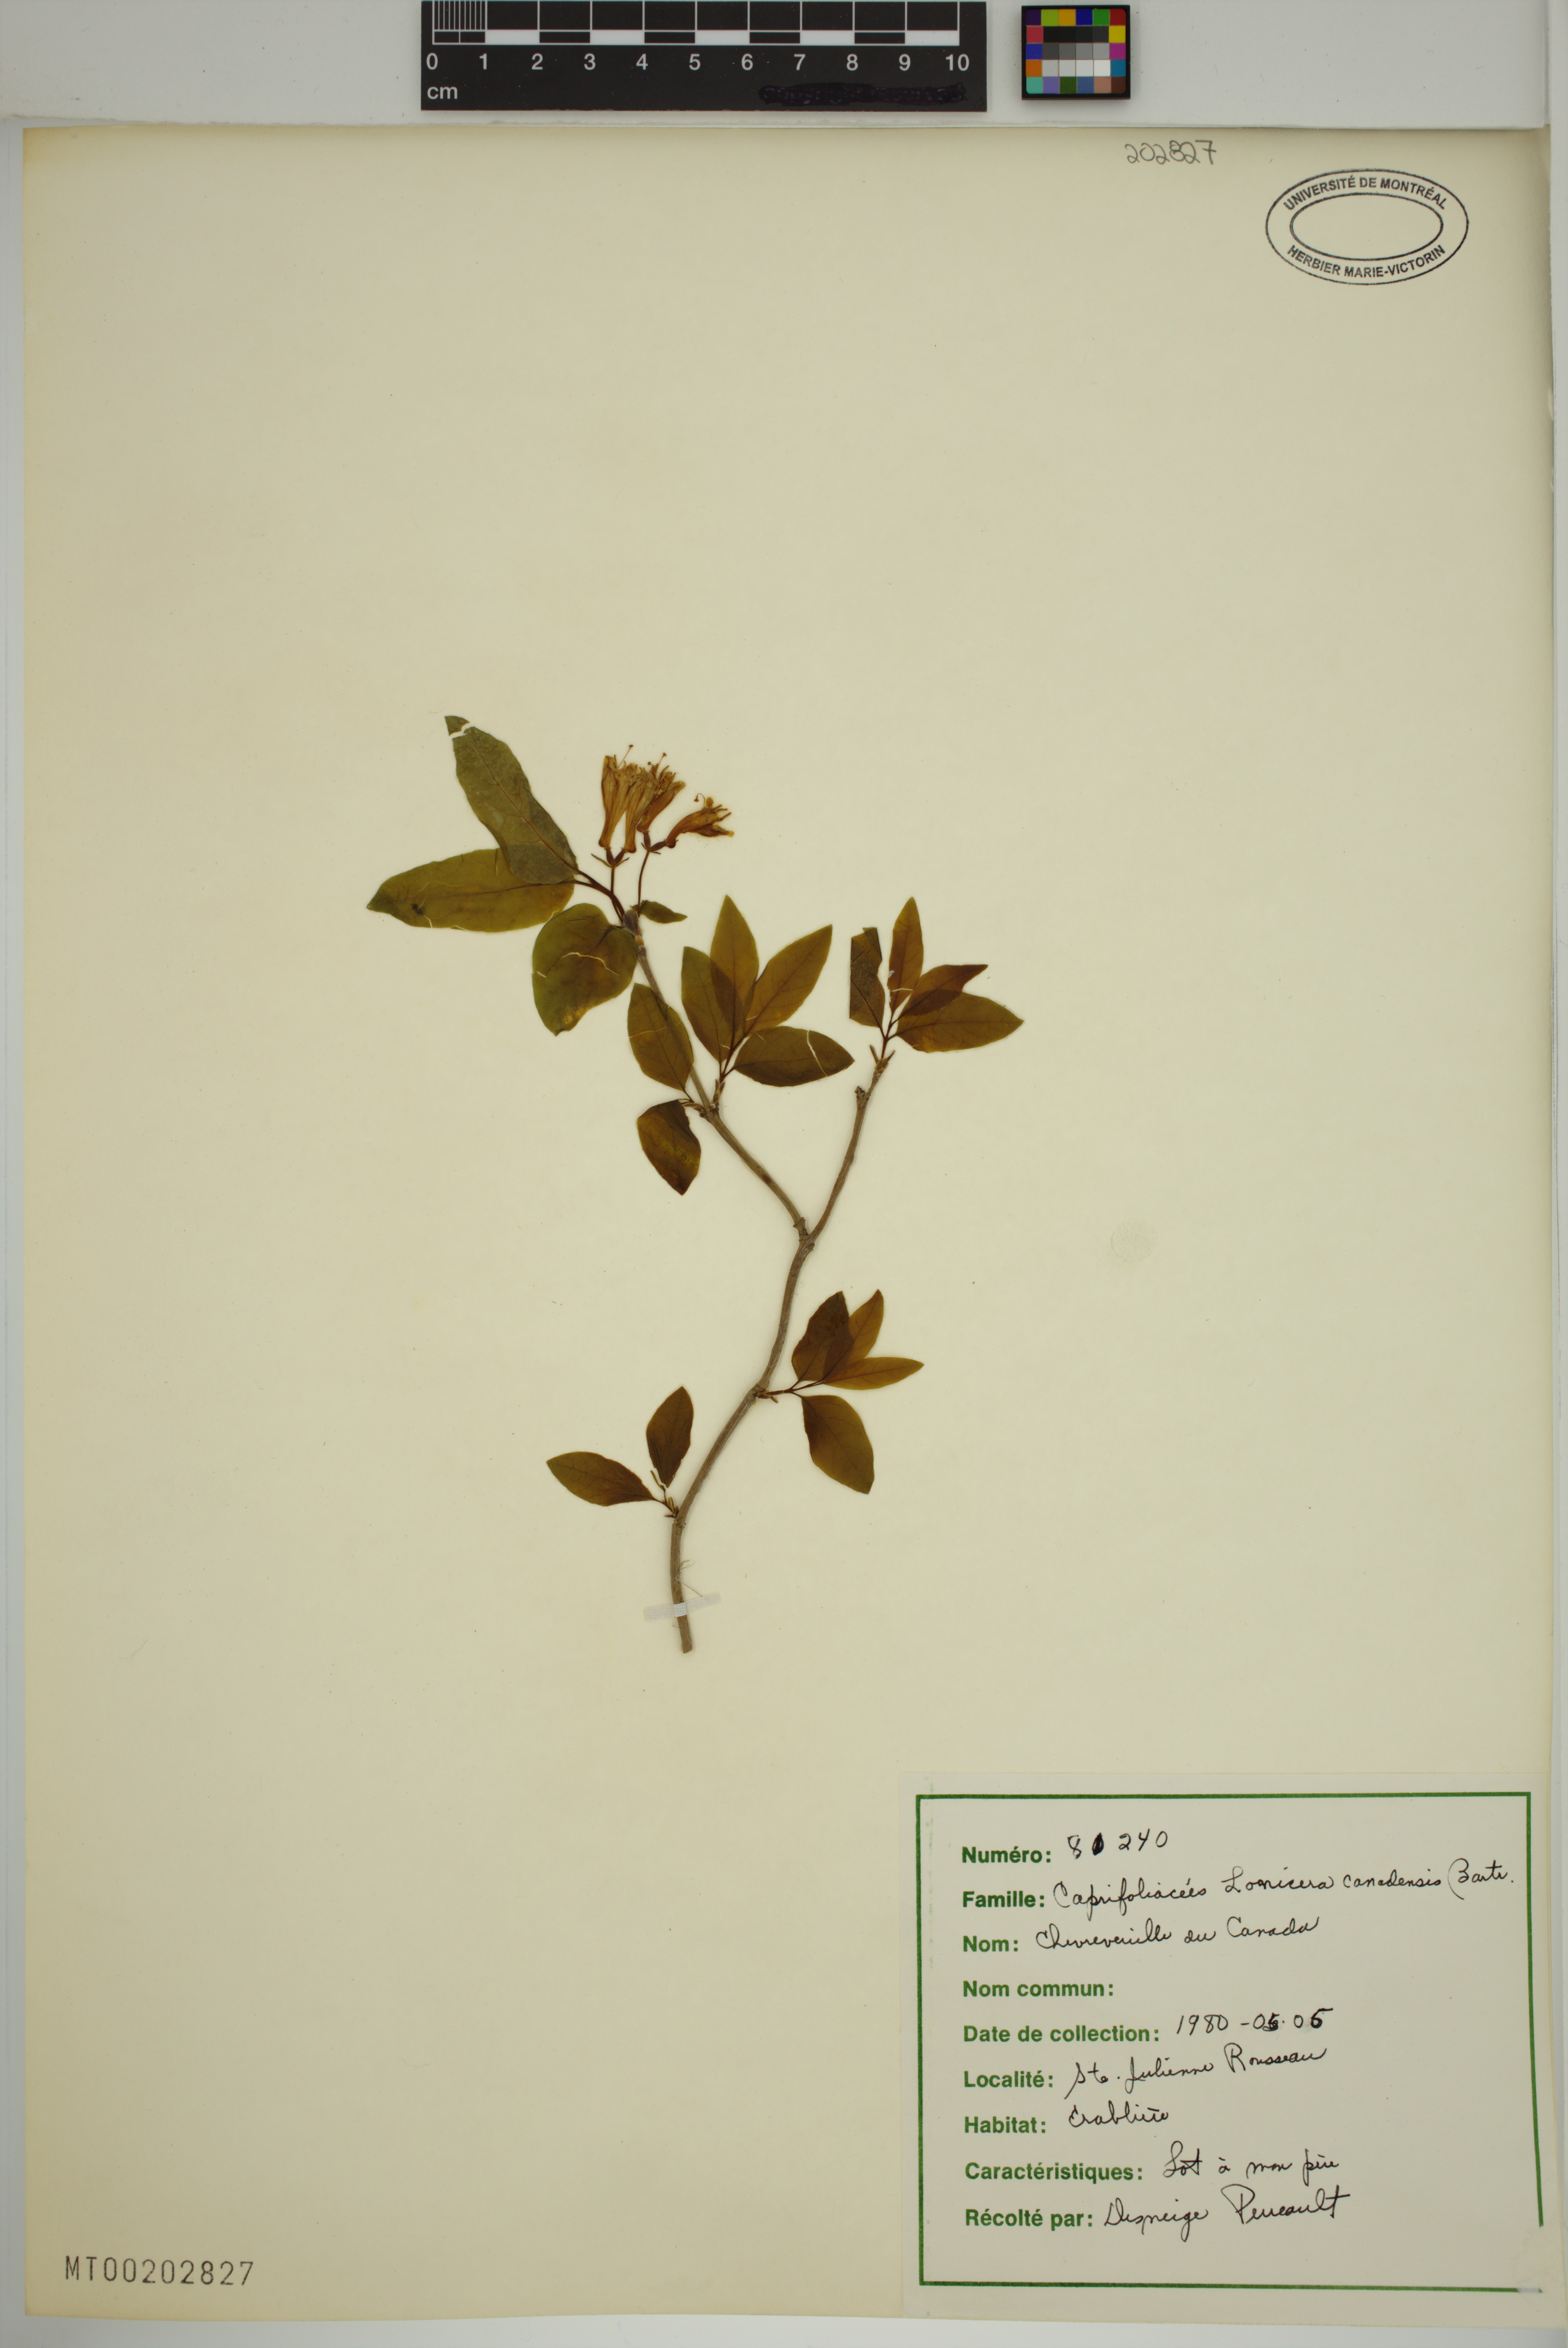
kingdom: Plantae
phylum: Tracheophyta
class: Magnoliopsida
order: Dipsacales
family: Caprifoliaceae
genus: Lonicera
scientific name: Lonicera canadensis
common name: American fly-honeysuckle
